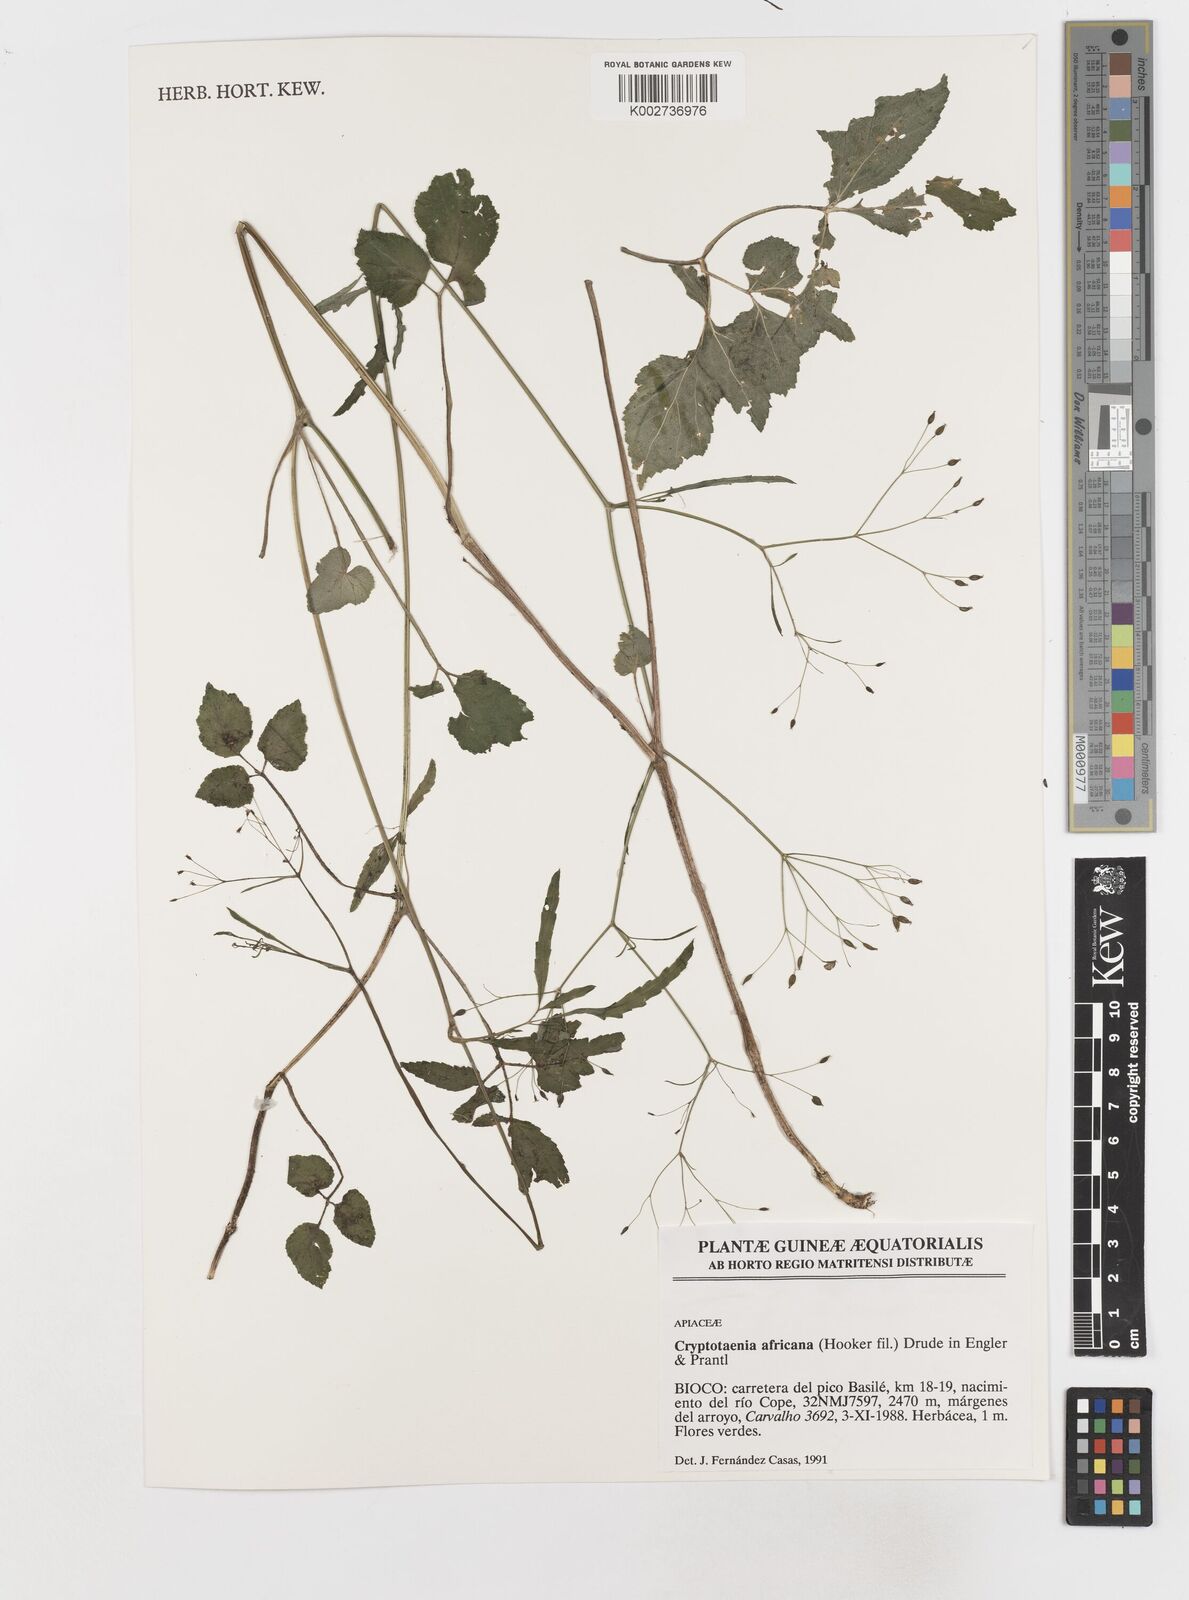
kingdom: Plantae
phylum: Tracheophyta
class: Magnoliopsida
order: Apiales
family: Apiaceae
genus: Cryptotaenia
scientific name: Cryptotaenia africana
